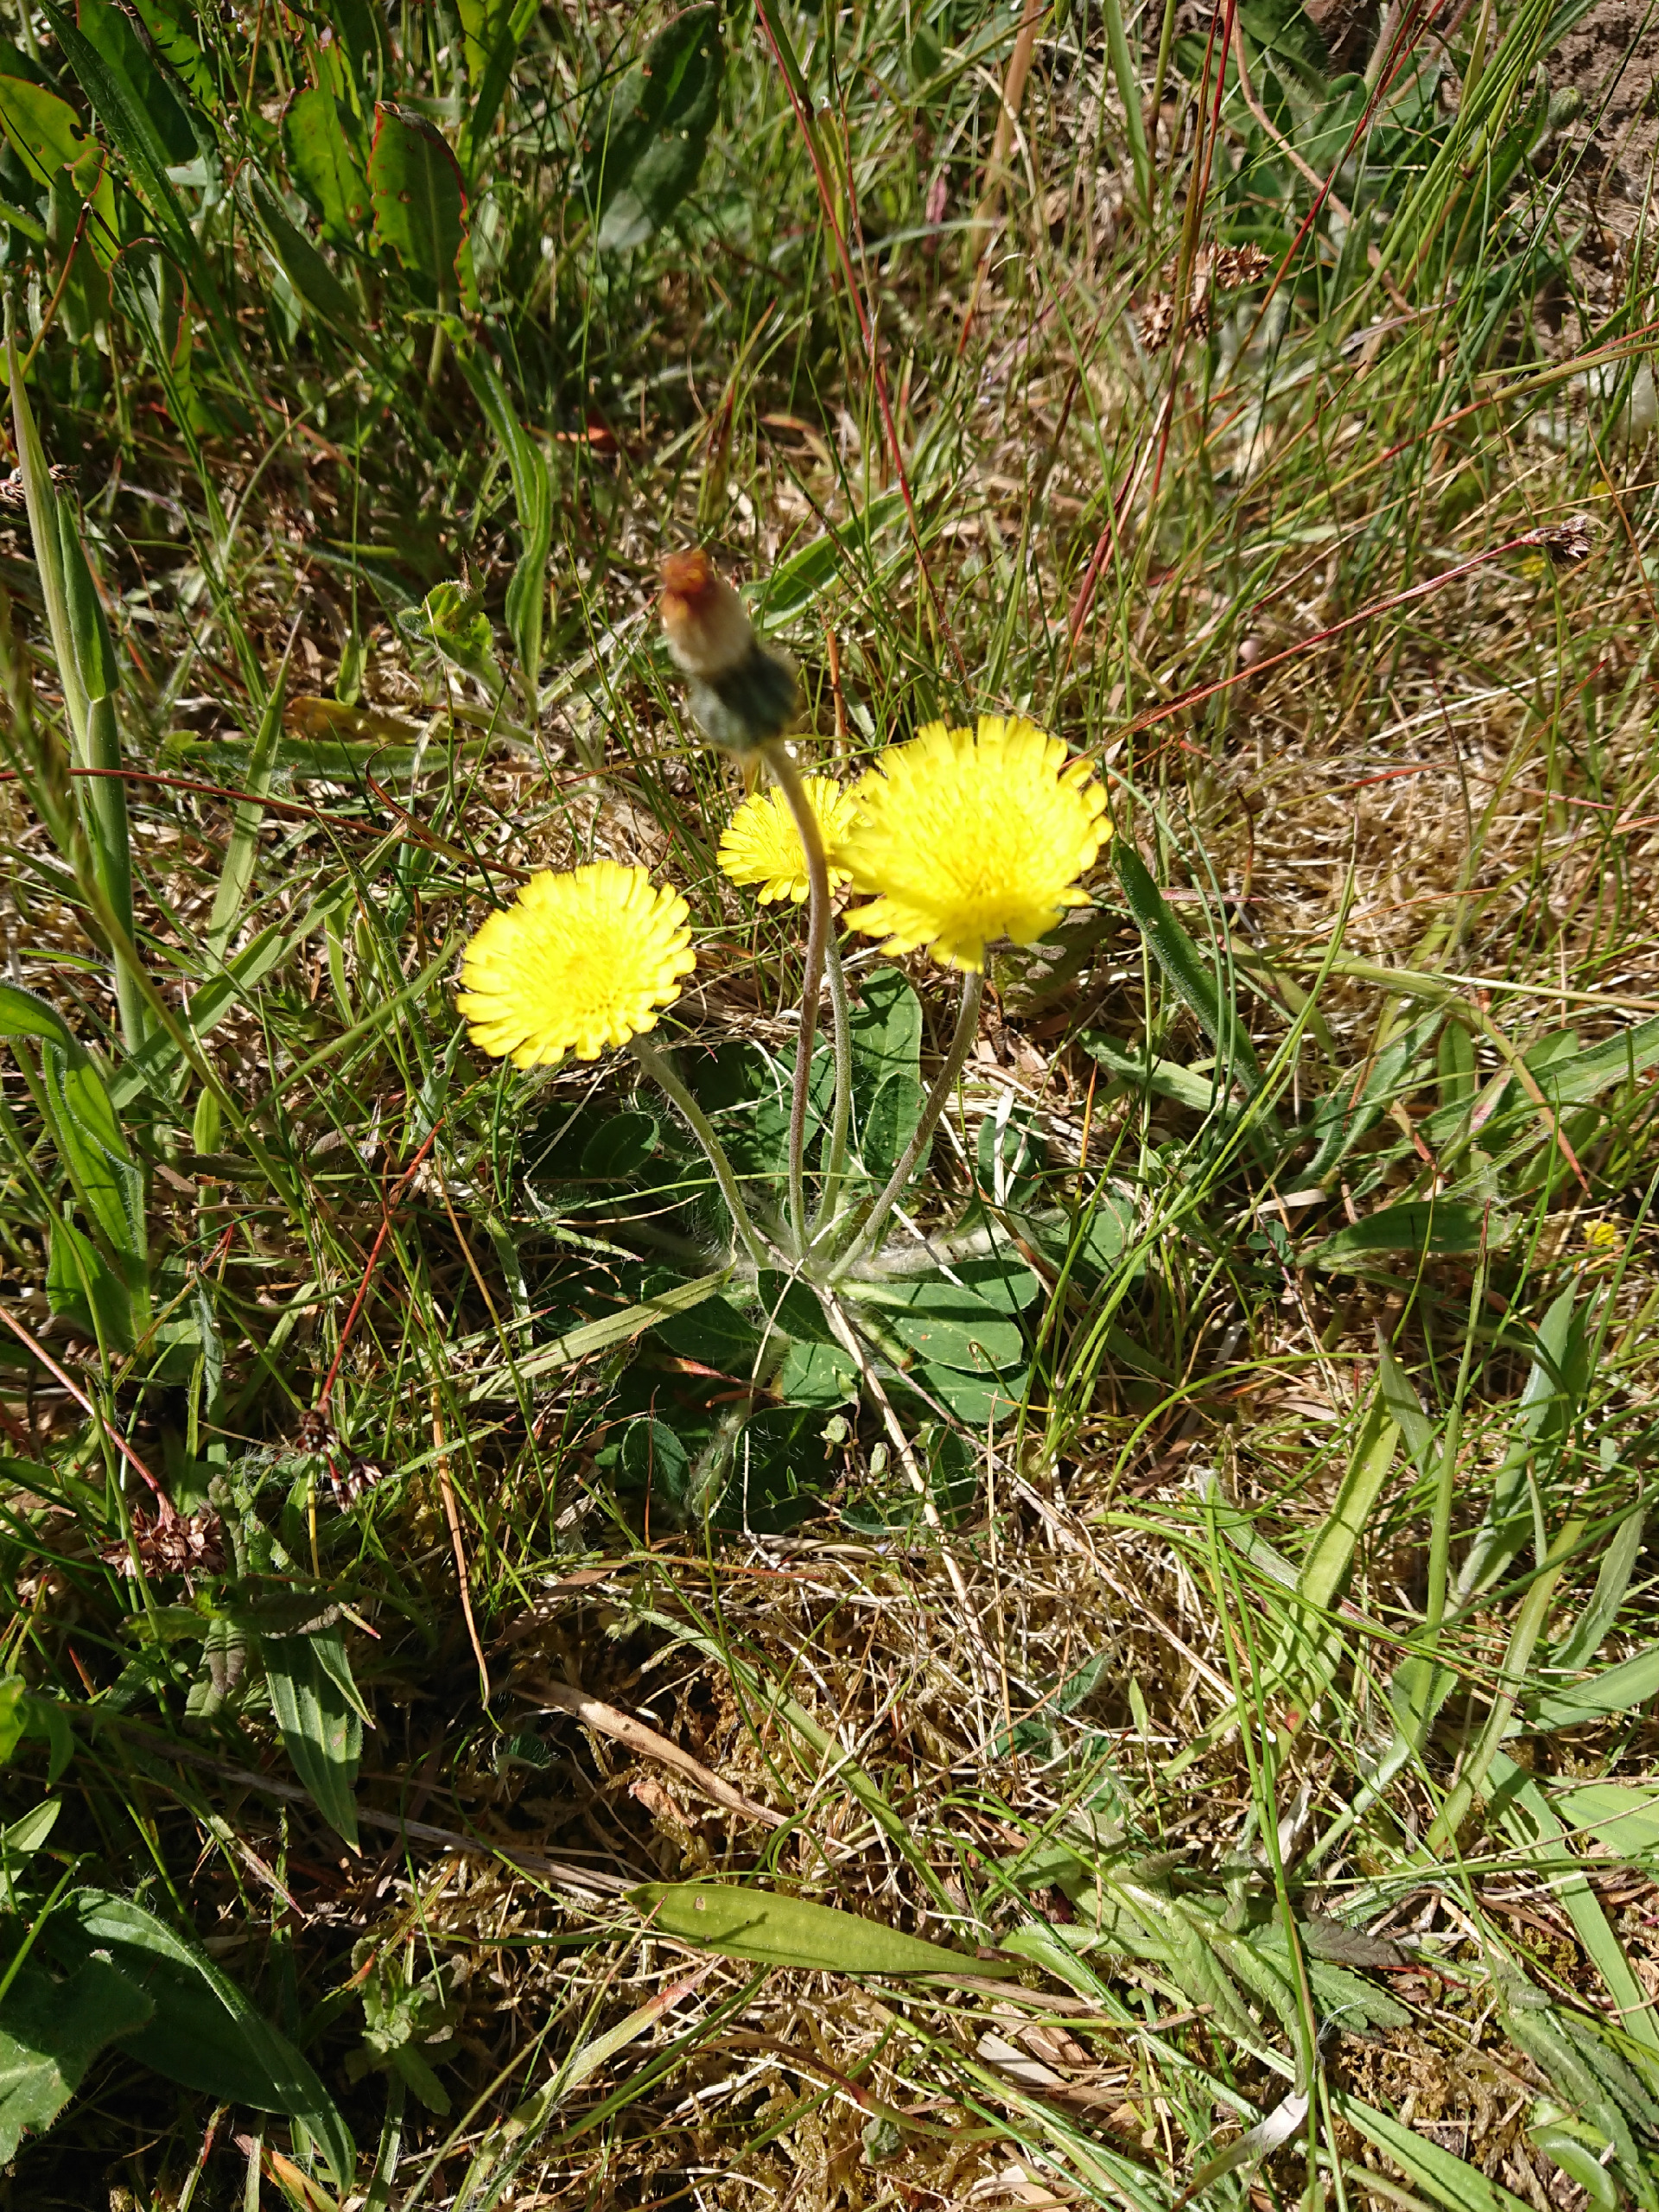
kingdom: Plantae
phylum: Tracheophyta
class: Magnoliopsida
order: Asterales
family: Asteraceae
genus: Pilosella
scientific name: Pilosella officinarum
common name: Håret høgeurt
